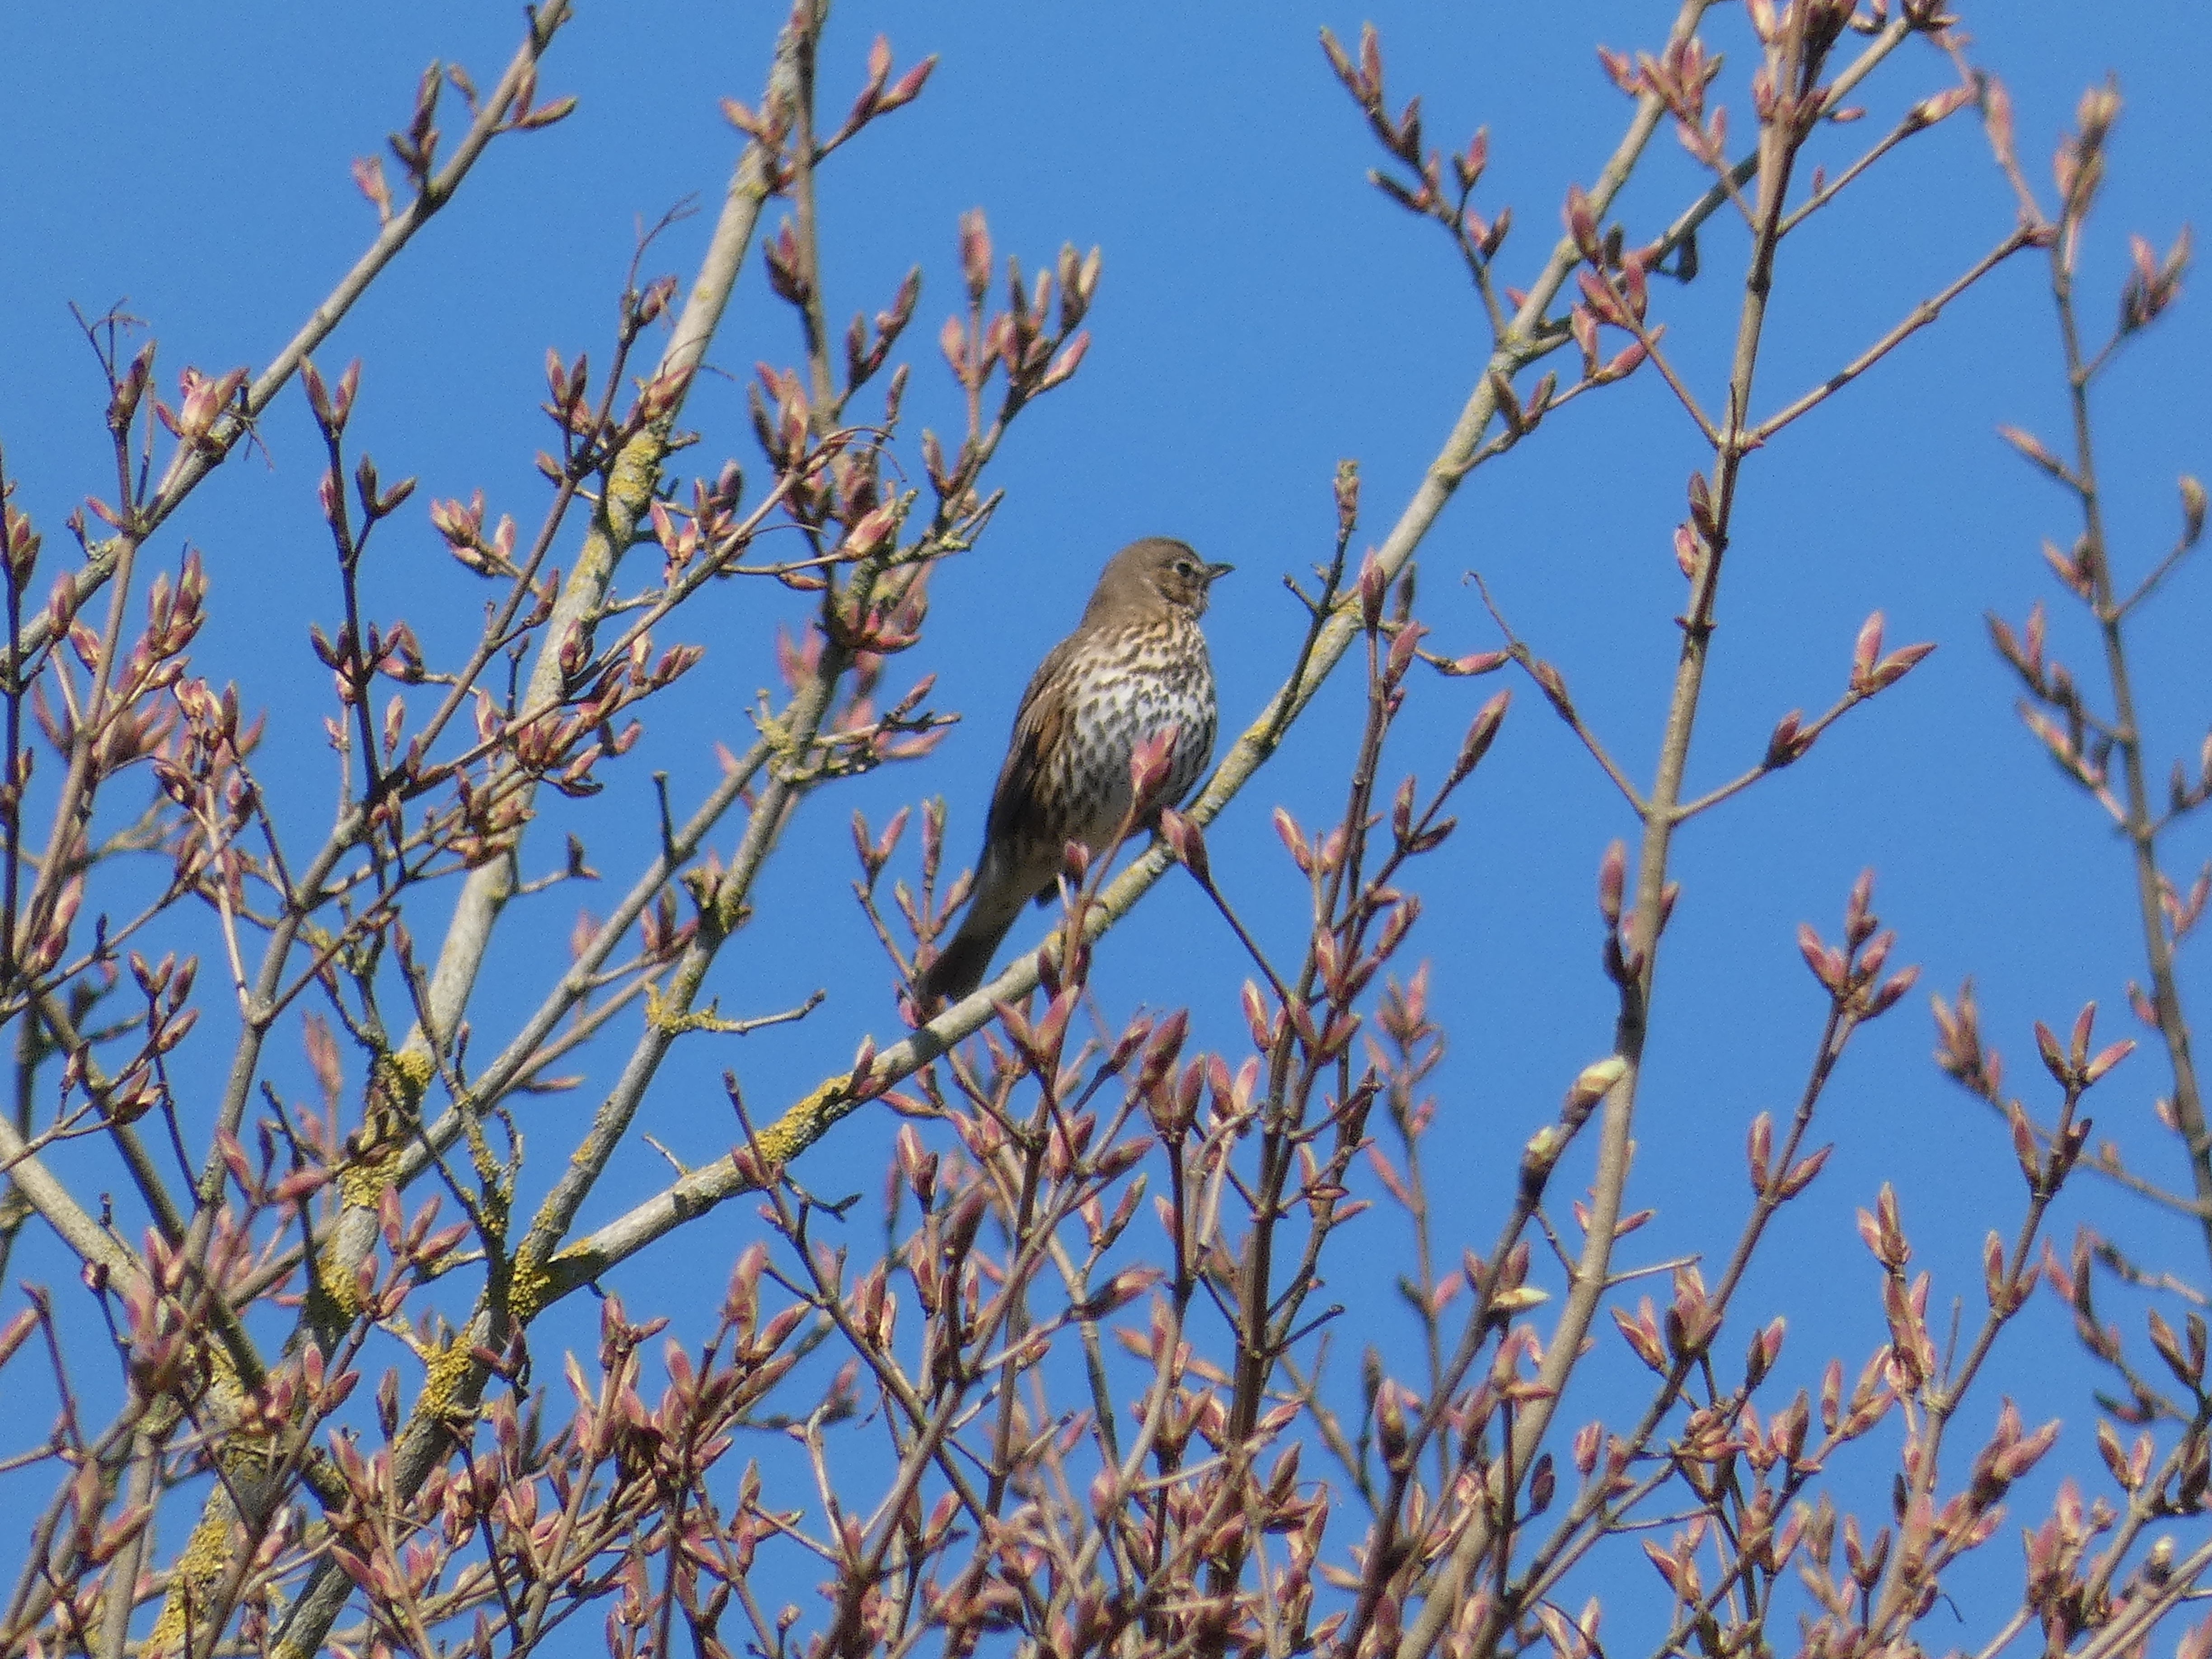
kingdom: Animalia
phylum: Chordata
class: Aves
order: Passeriformes
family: Turdidae
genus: Turdus
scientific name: Turdus philomelos
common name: Sangdrossel
